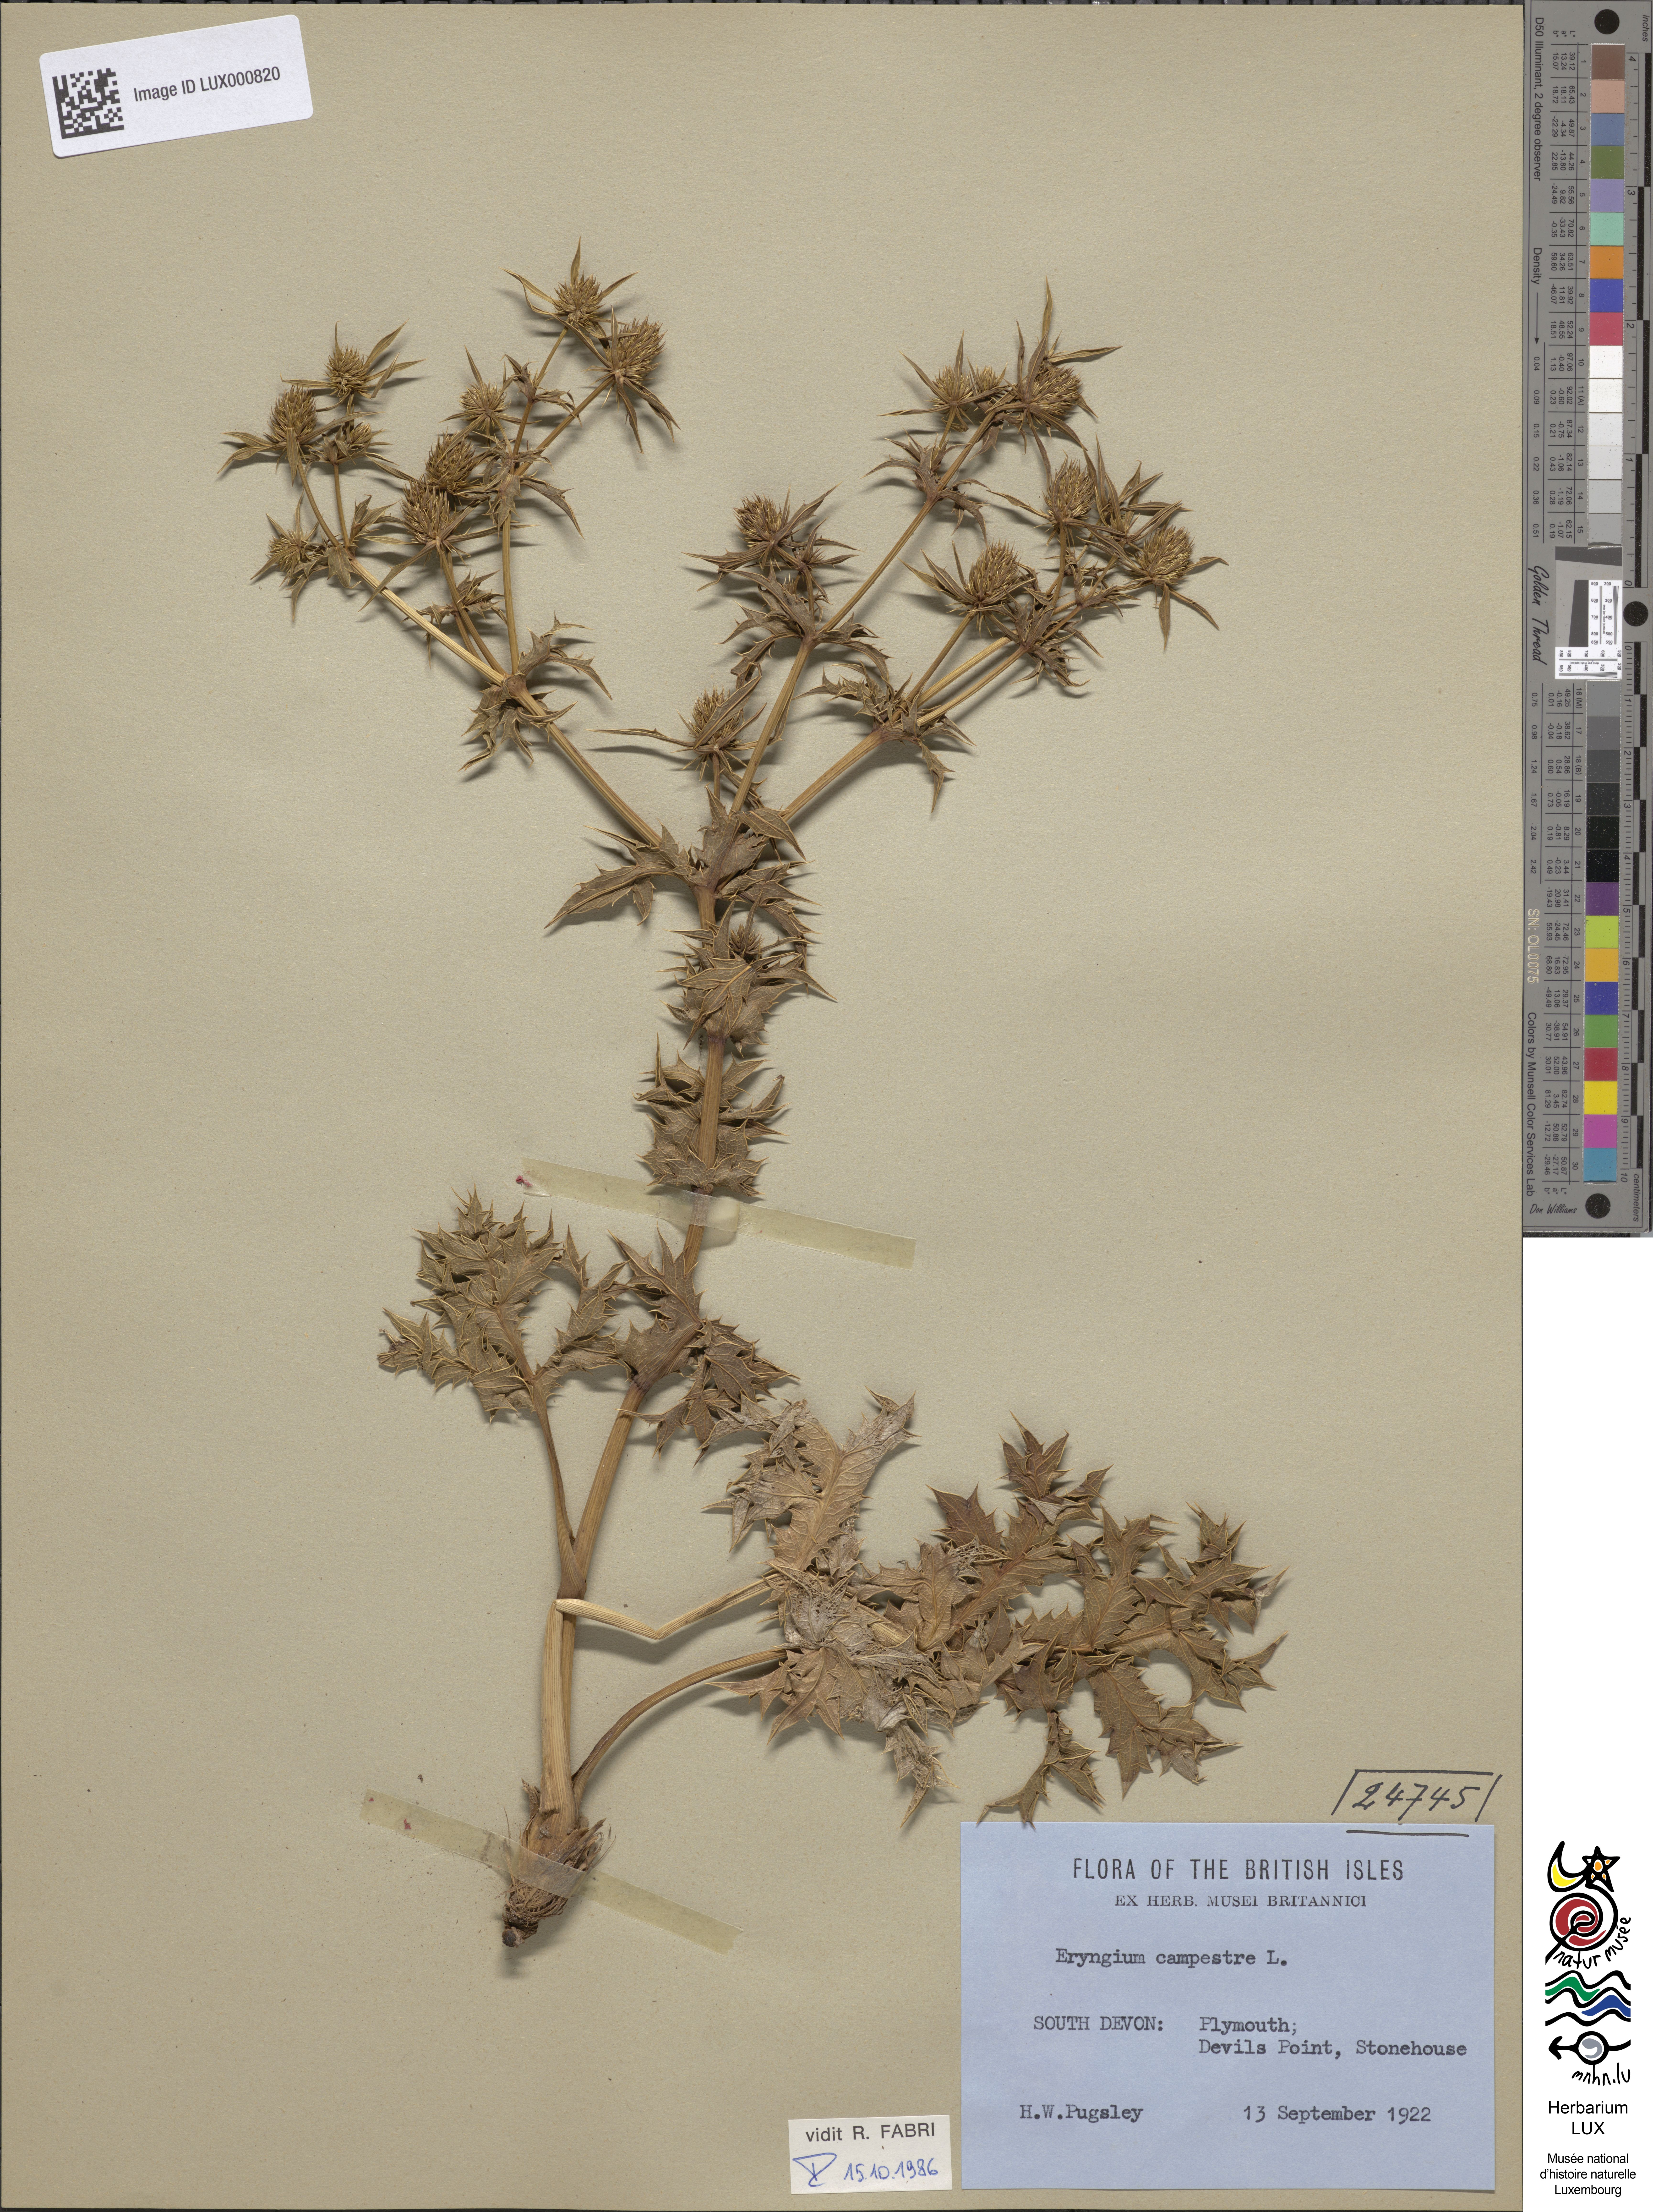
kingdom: Plantae
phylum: Tracheophyta
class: Magnoliopsida
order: Apiales
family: Apiaceae
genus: Eryngium
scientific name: Eryngium campestre
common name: Field eryngo
